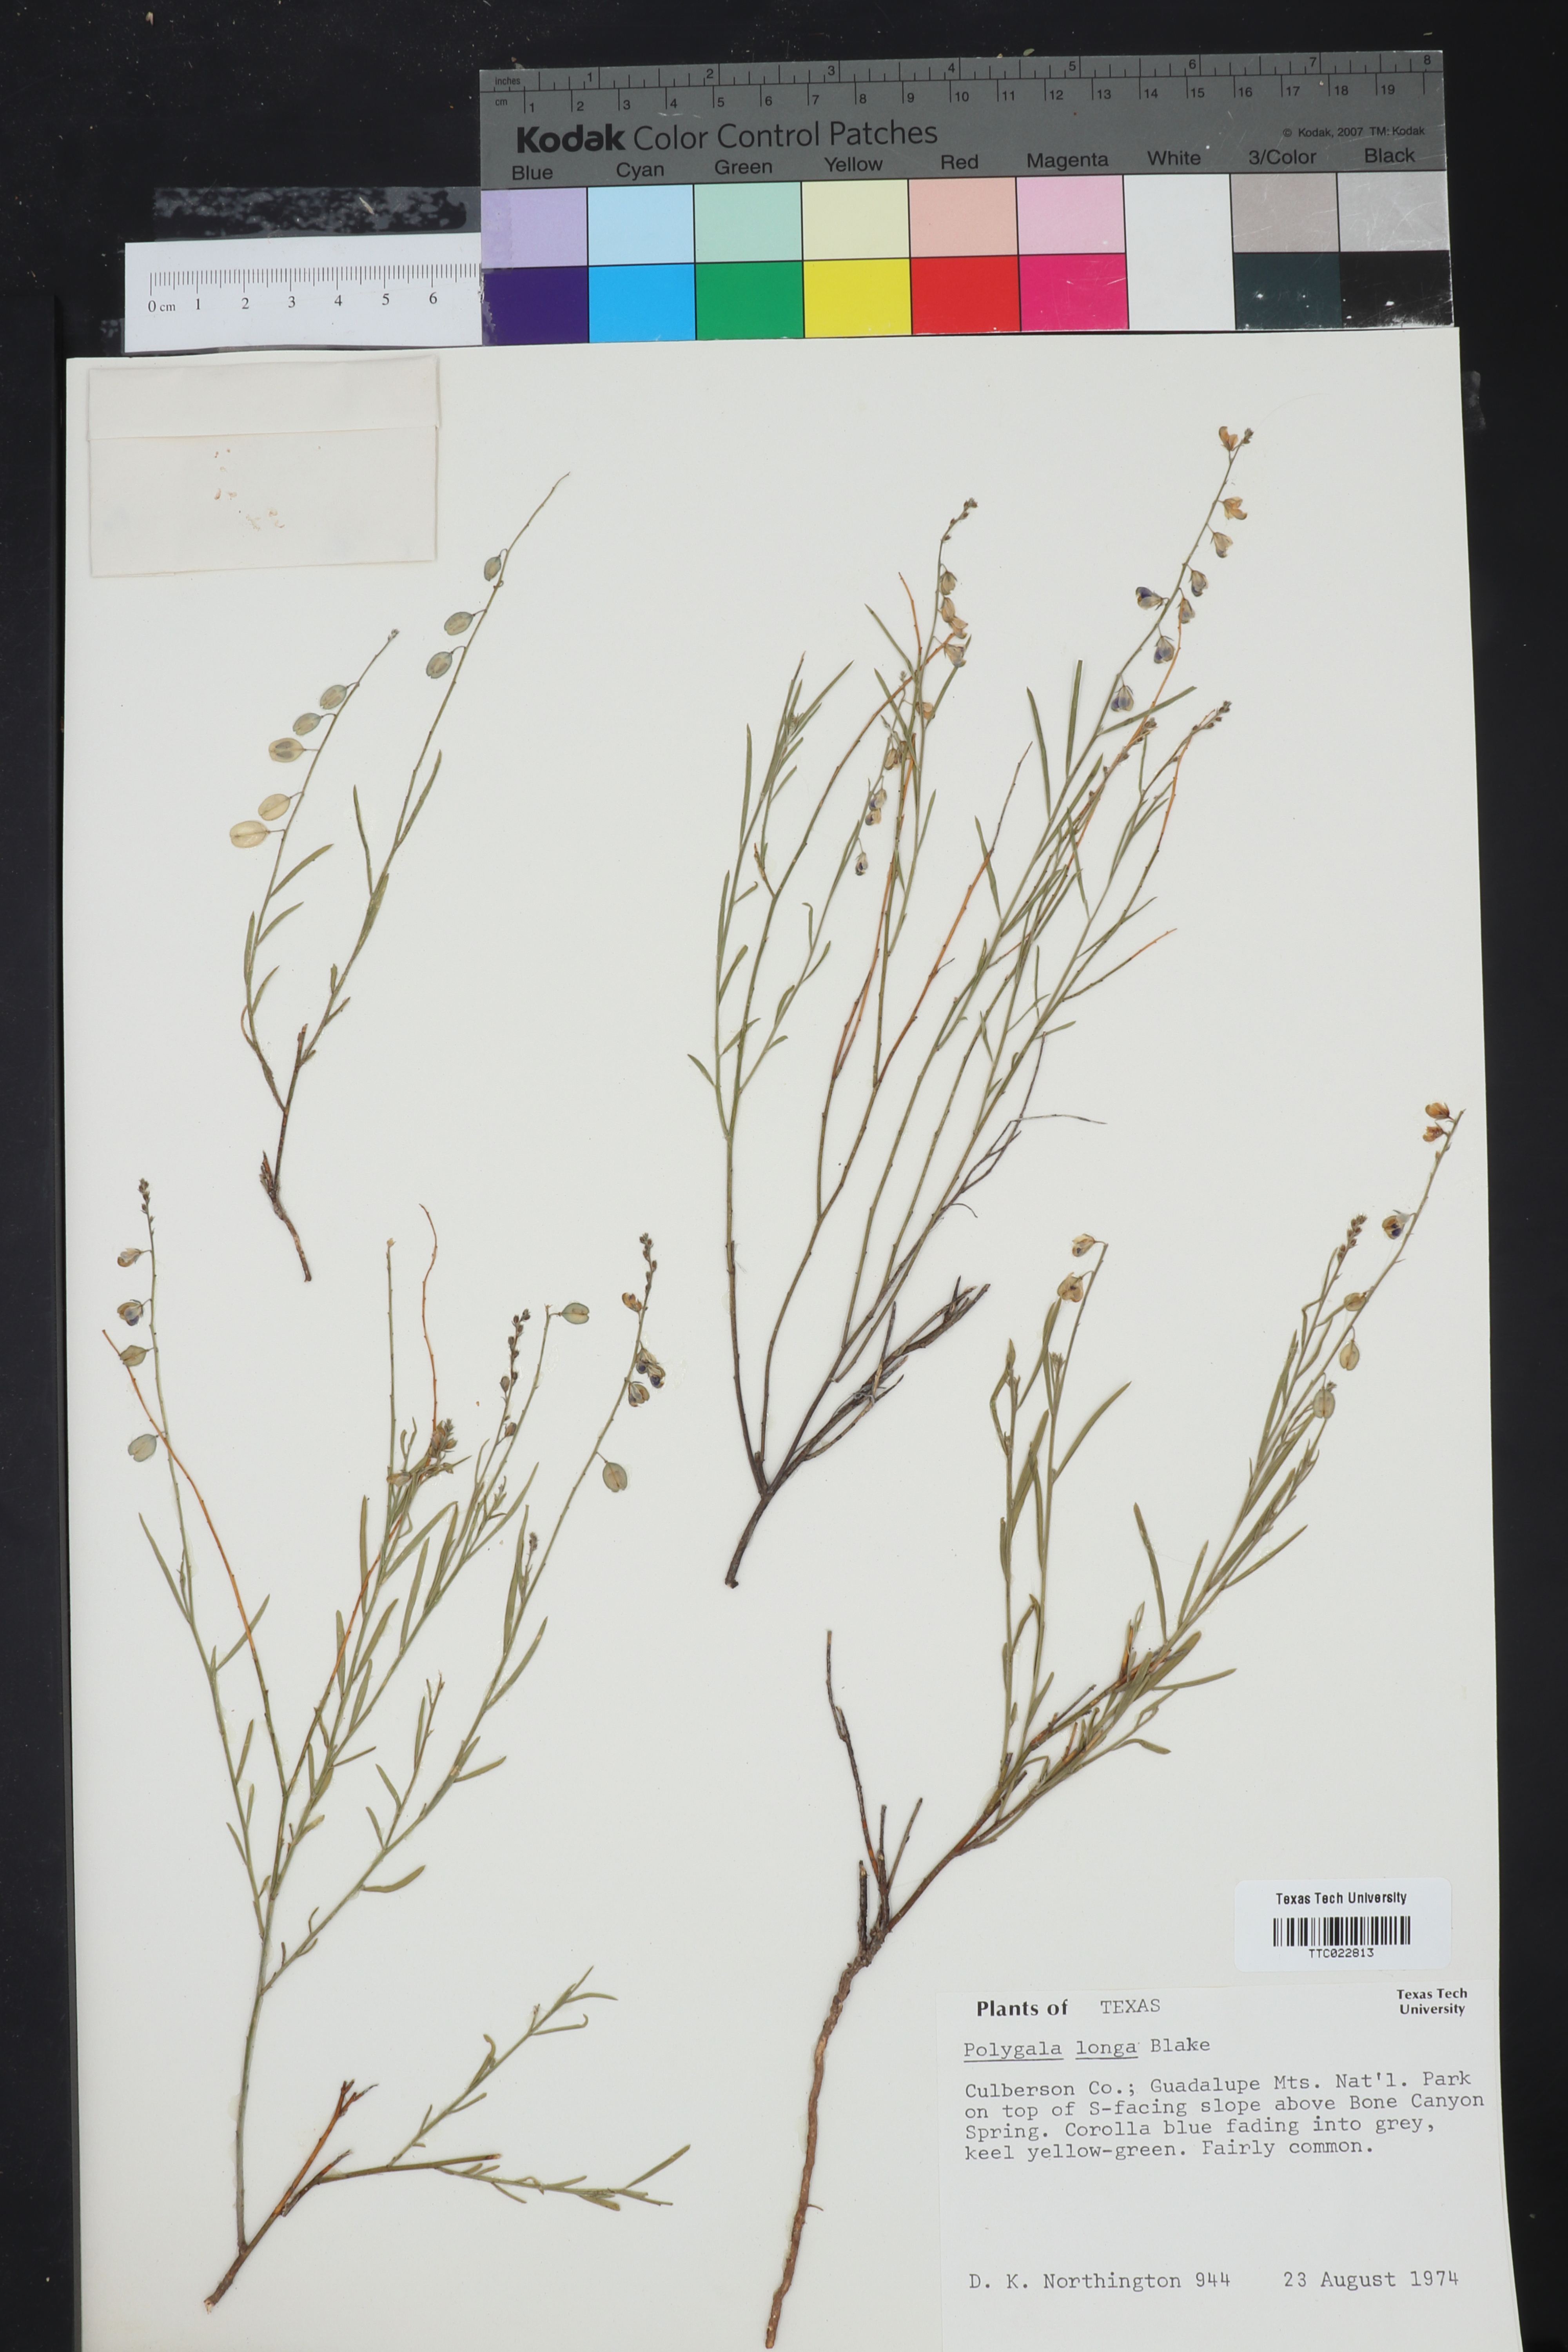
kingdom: Plantae
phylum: Tracheophyta
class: Magnoliopsida
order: Fabales
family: Polygalaceae
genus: Hebecarpa
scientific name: Hebecarpa barbeyana
